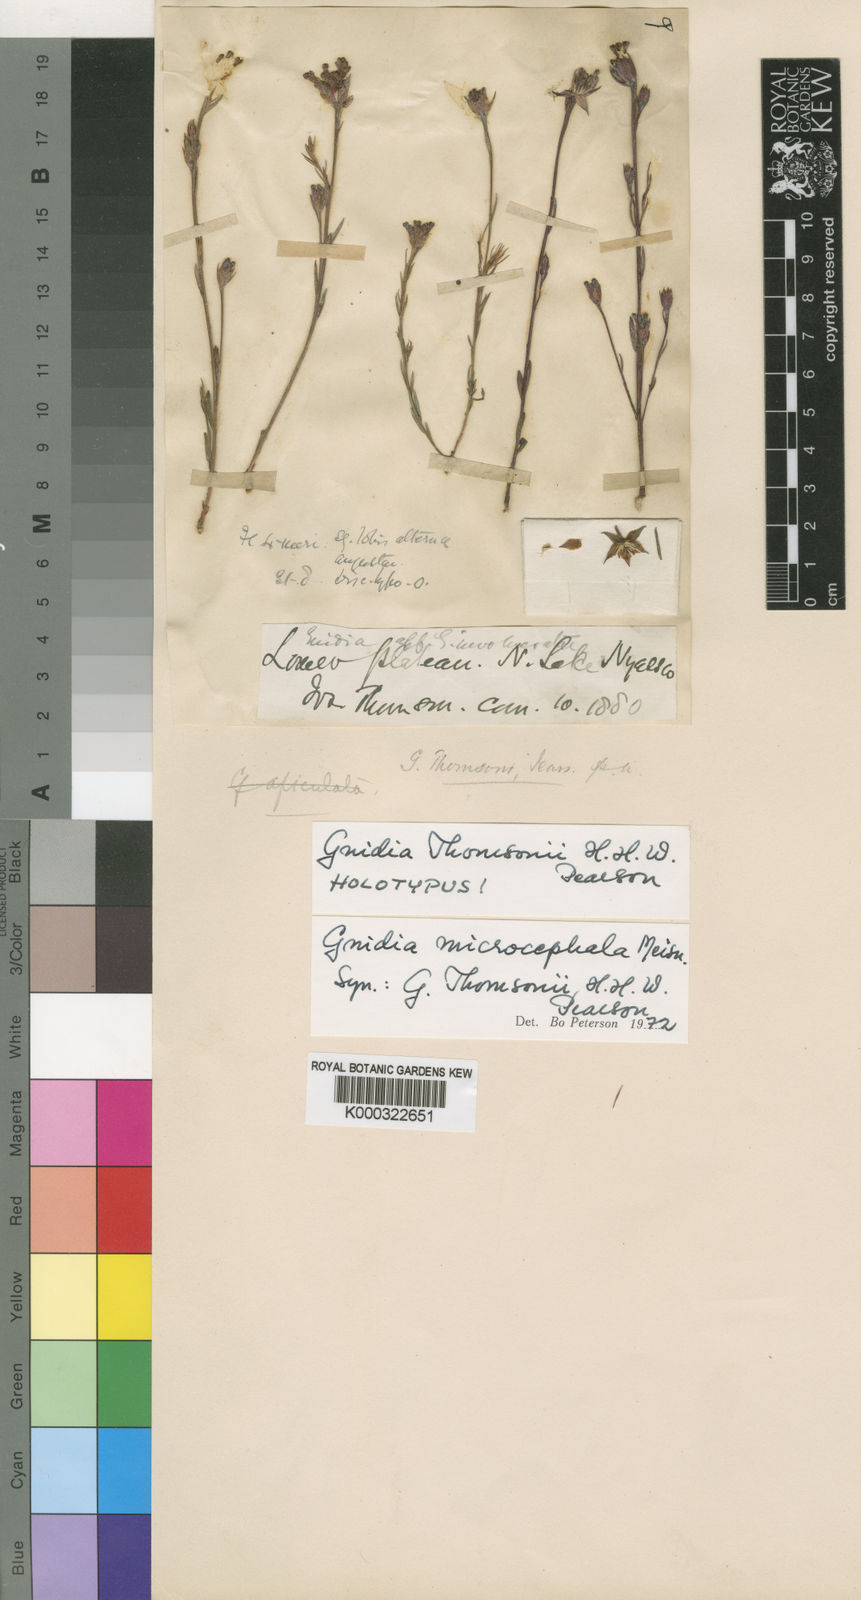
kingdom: Plantae
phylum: Tracheophyta
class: Magnoliopsida
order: Malvales
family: Thymelaeaceae
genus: Gnidia
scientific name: Gnidia microcephala
